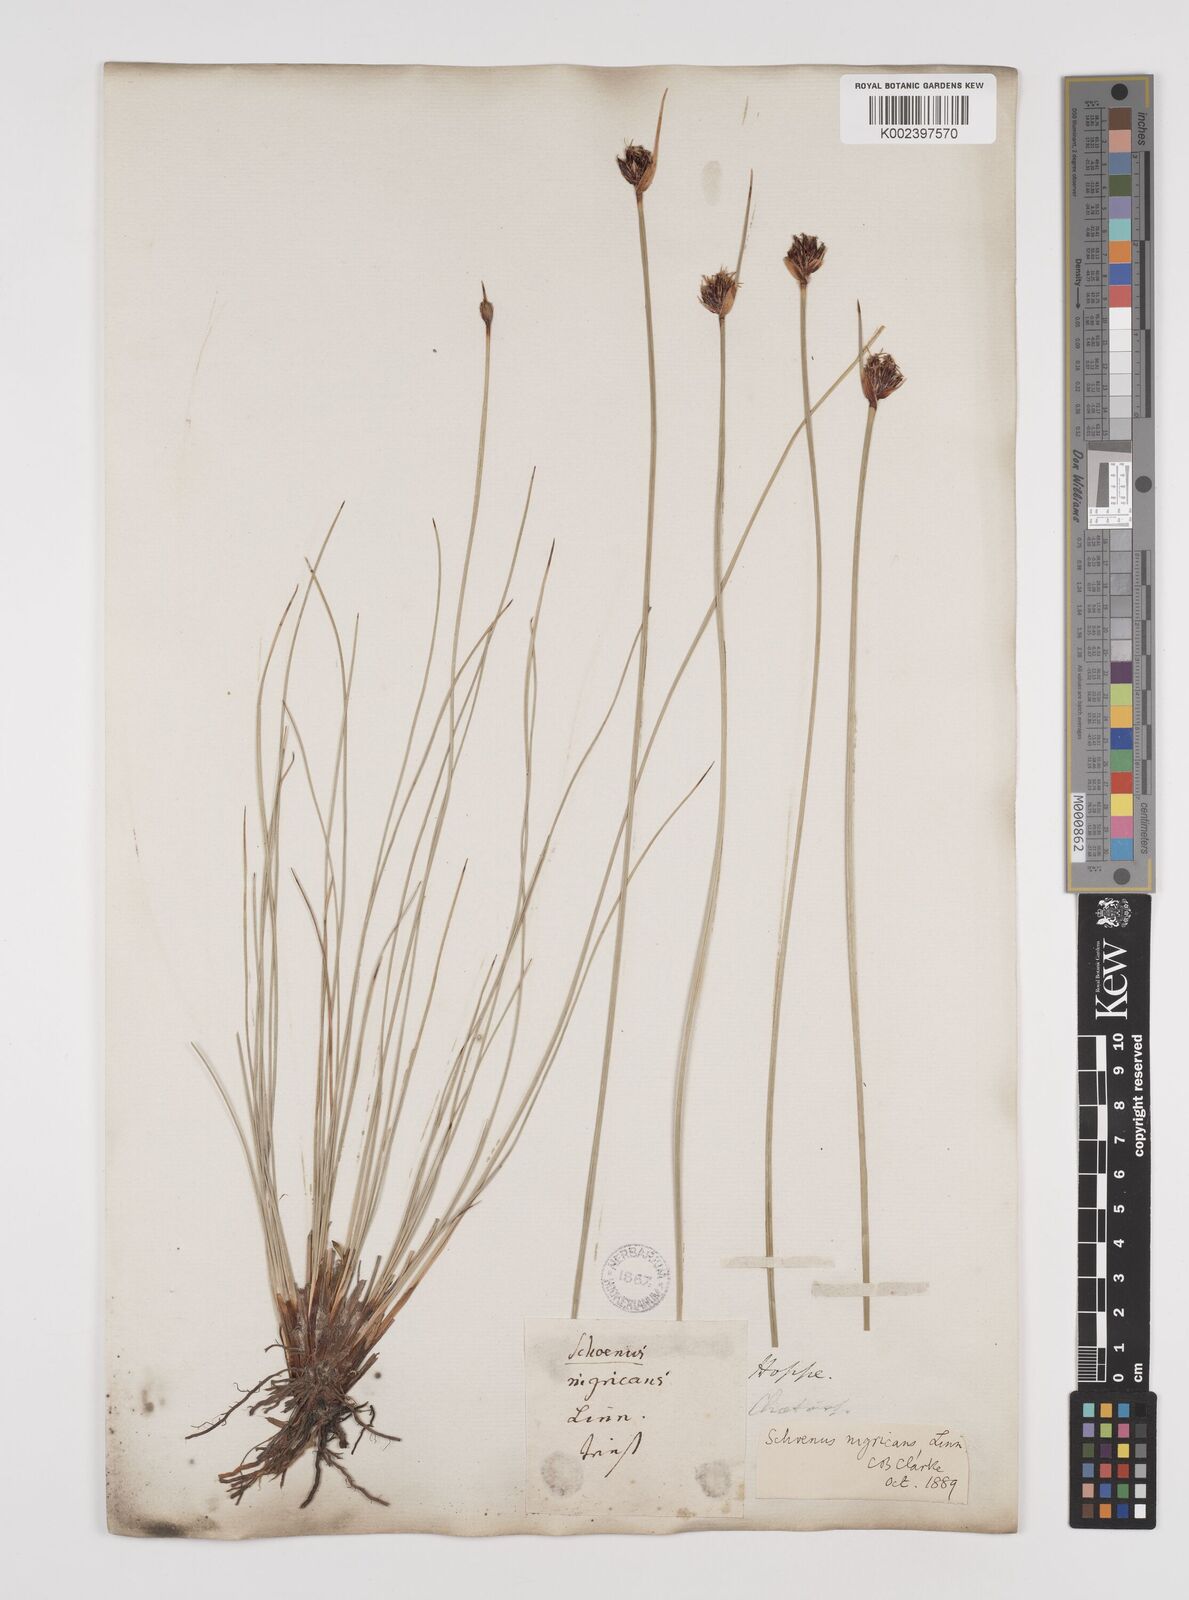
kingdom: Plantae
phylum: Tracheophyta
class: Liliopsida
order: Poales
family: Cyperaceae
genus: Schoenus
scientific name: Schoenus nigricans
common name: Black bog-rush
